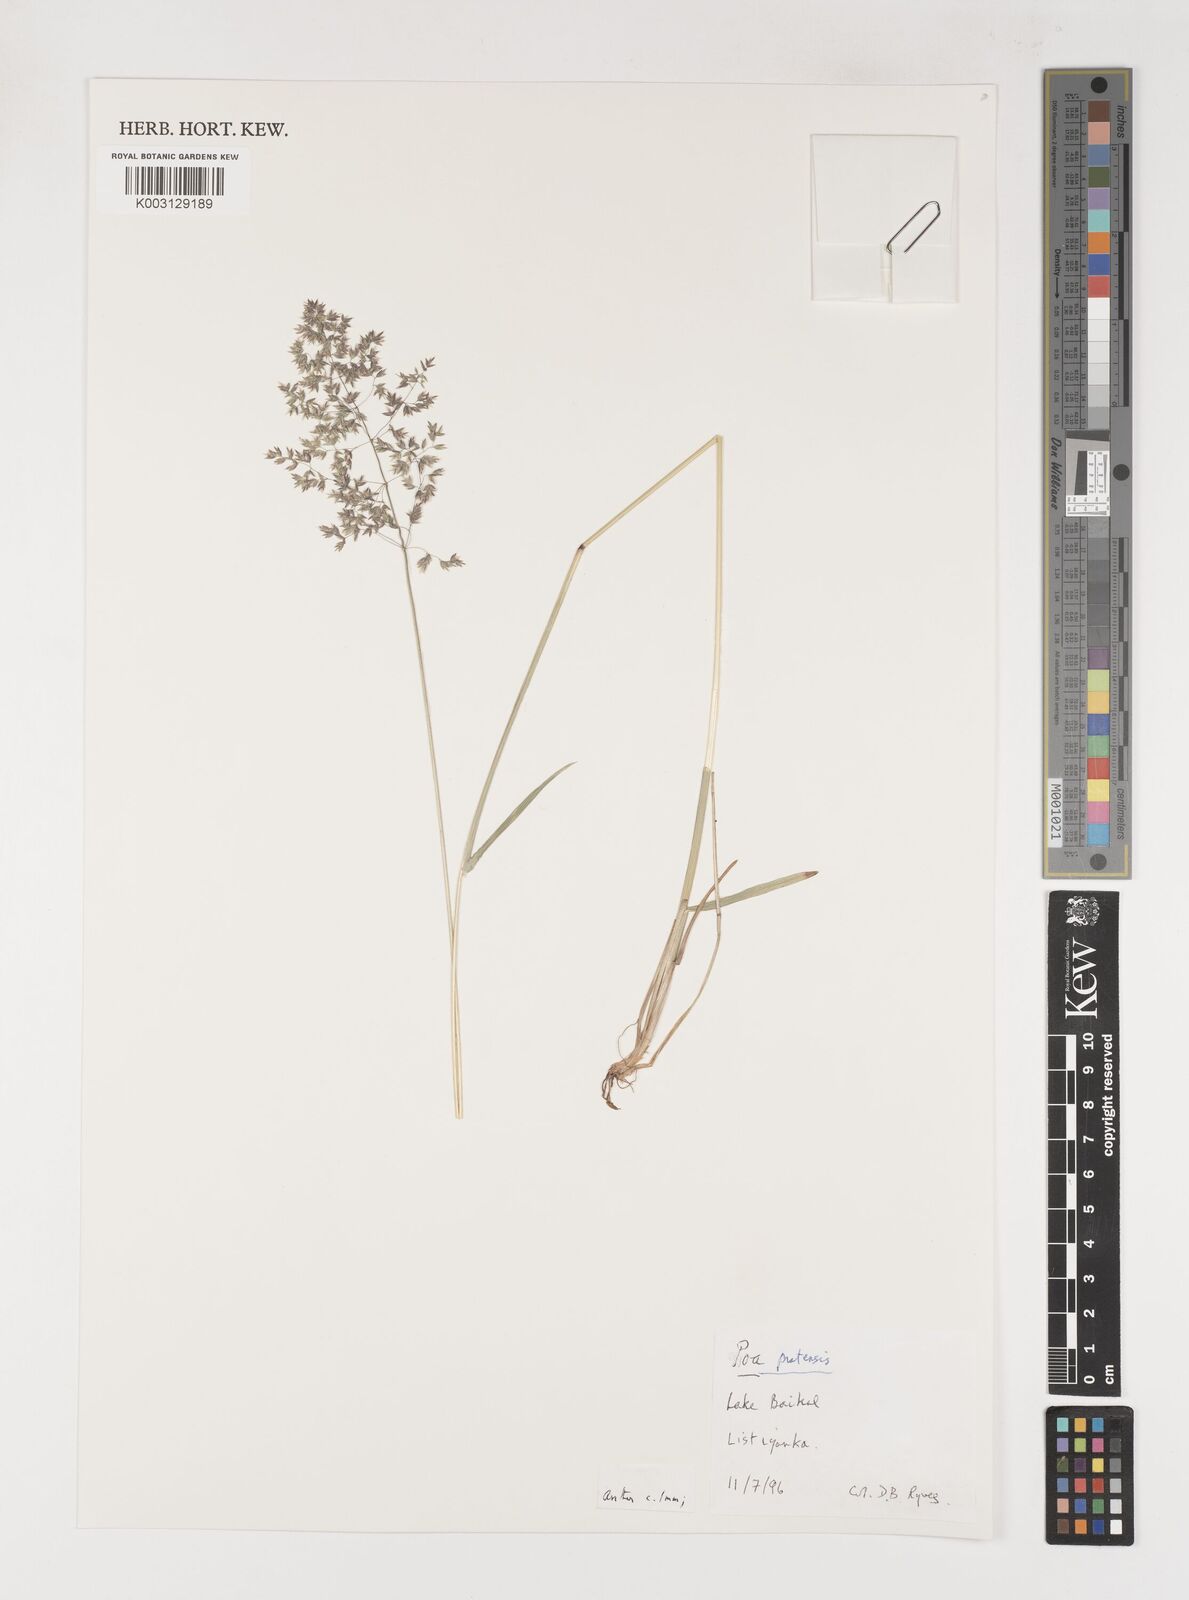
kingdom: Plantae
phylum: Tracheophyta
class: Liliopsida
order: Poales
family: Poaceae
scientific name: Poaceae
